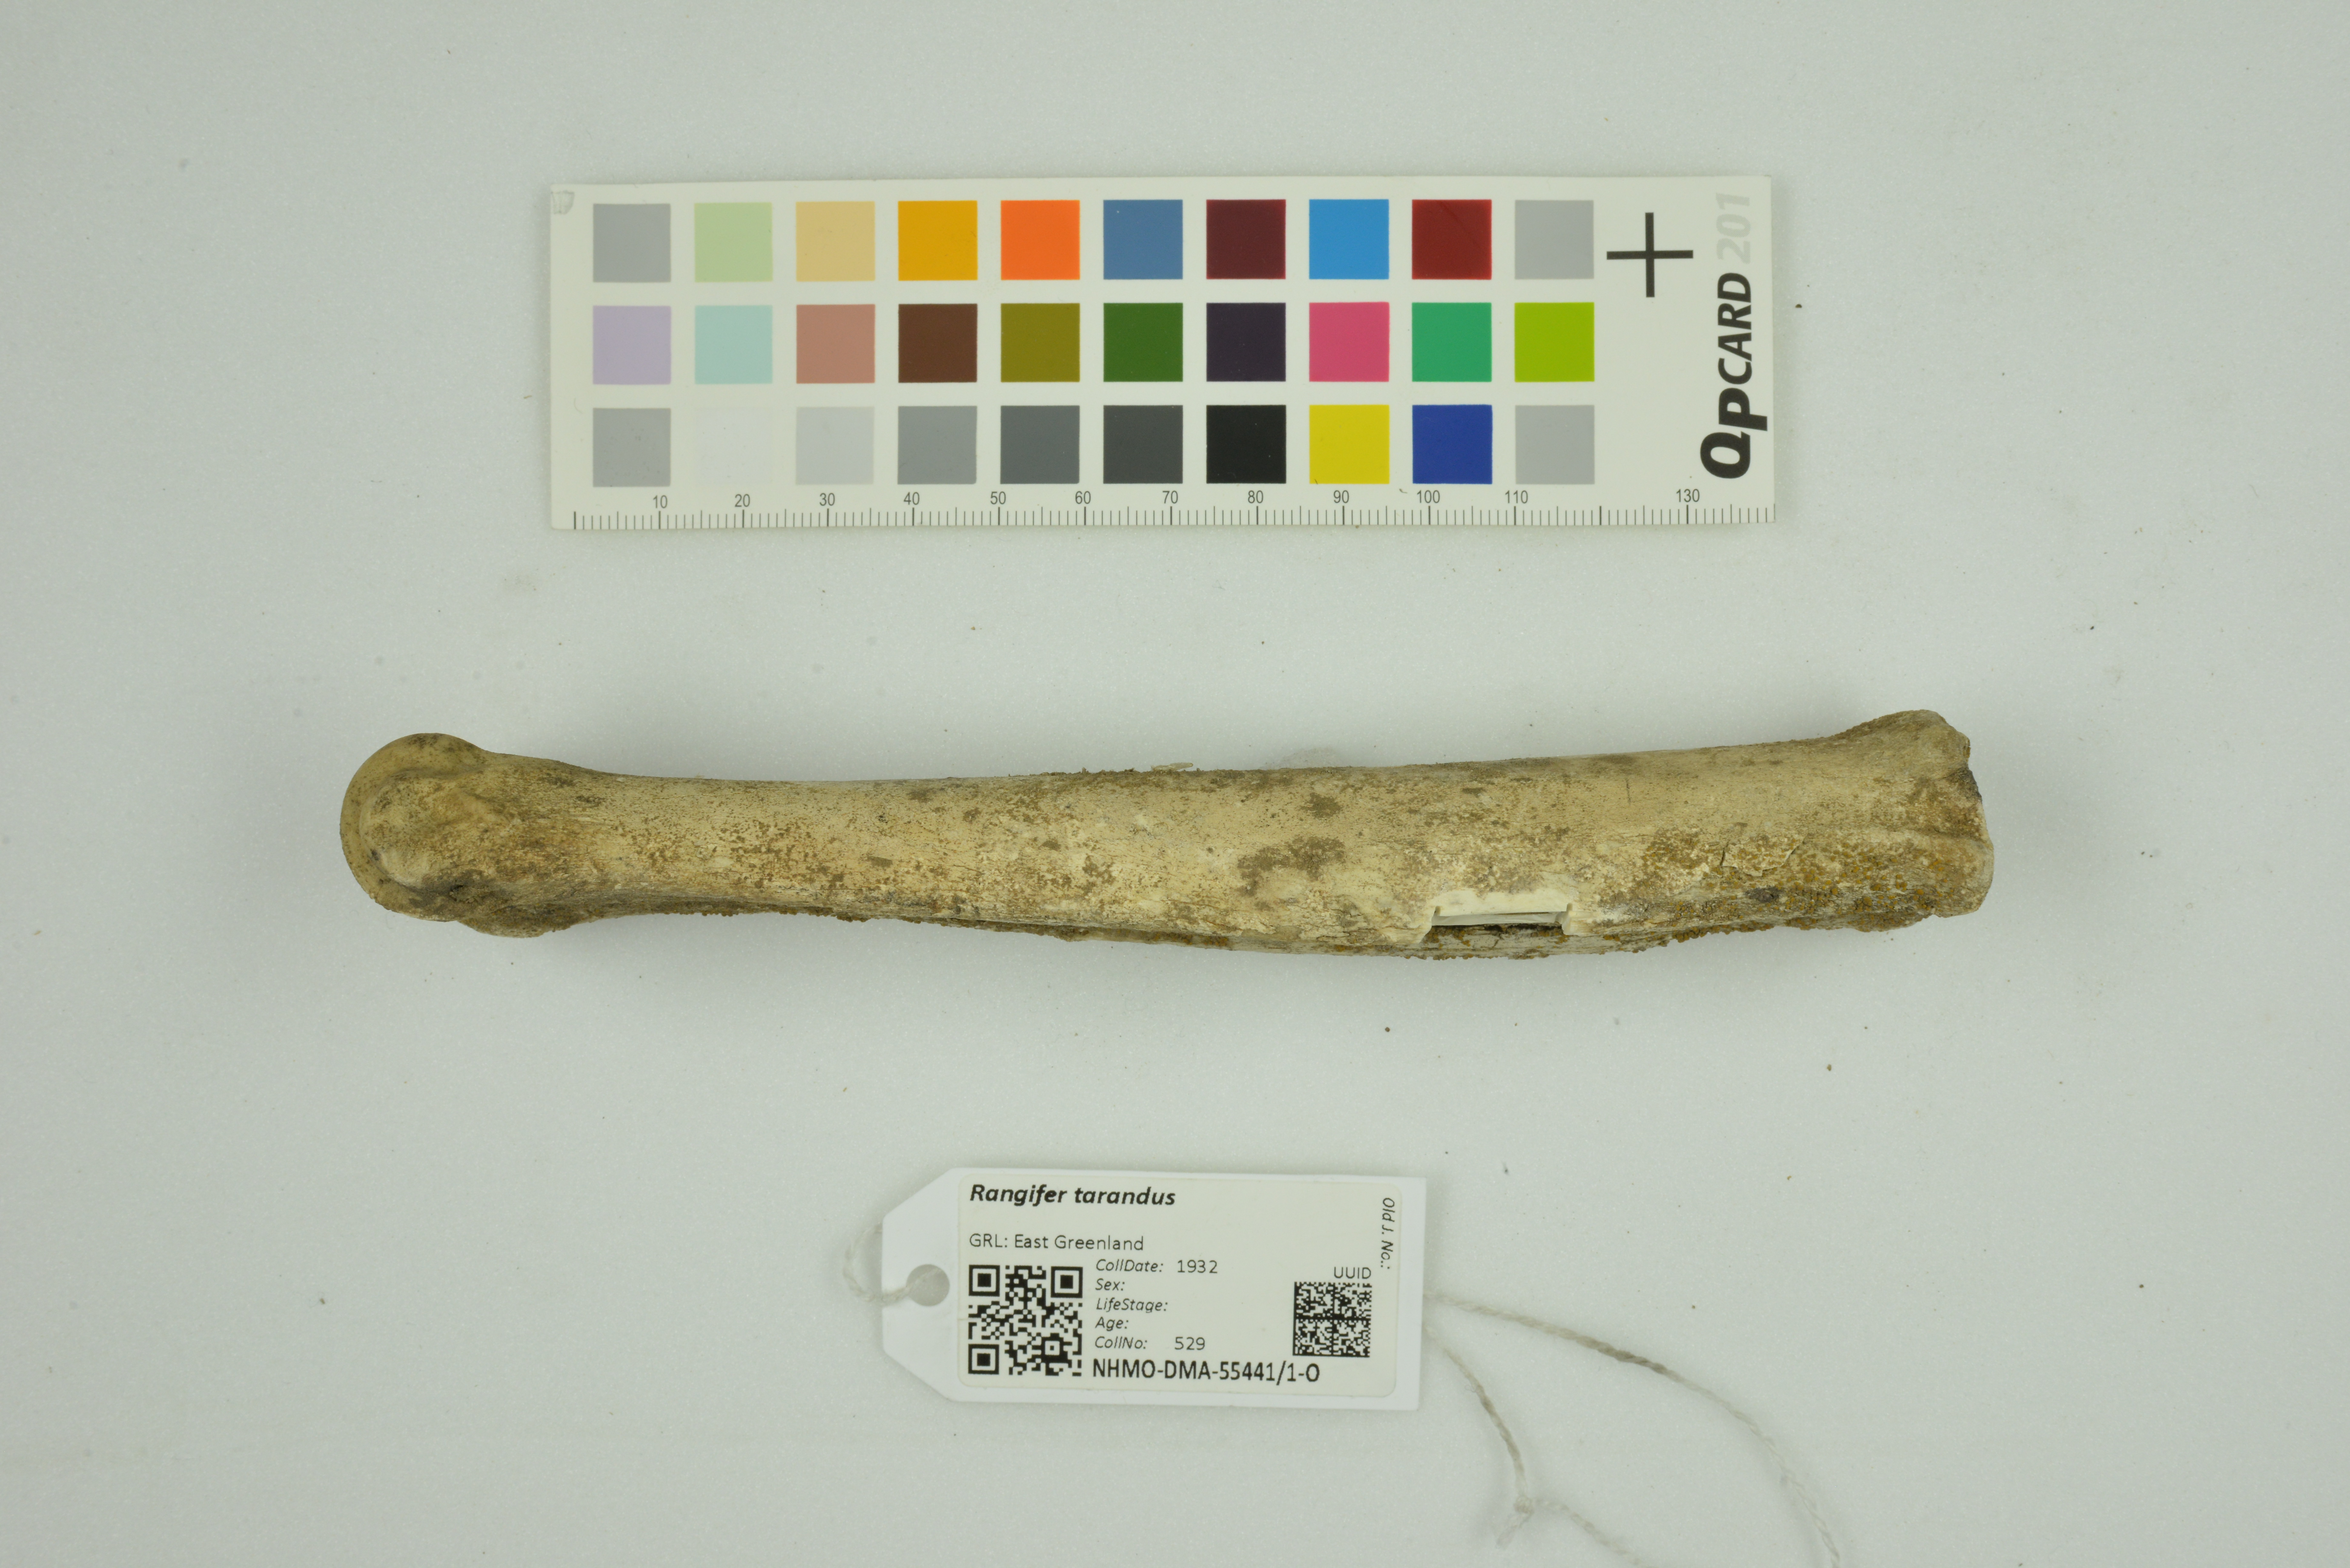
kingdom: Animalia
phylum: Chordata
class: Mammalia
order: Artiodactyla
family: Cervidae
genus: Rangifer
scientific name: Rangifer tarandus
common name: Reindeer
